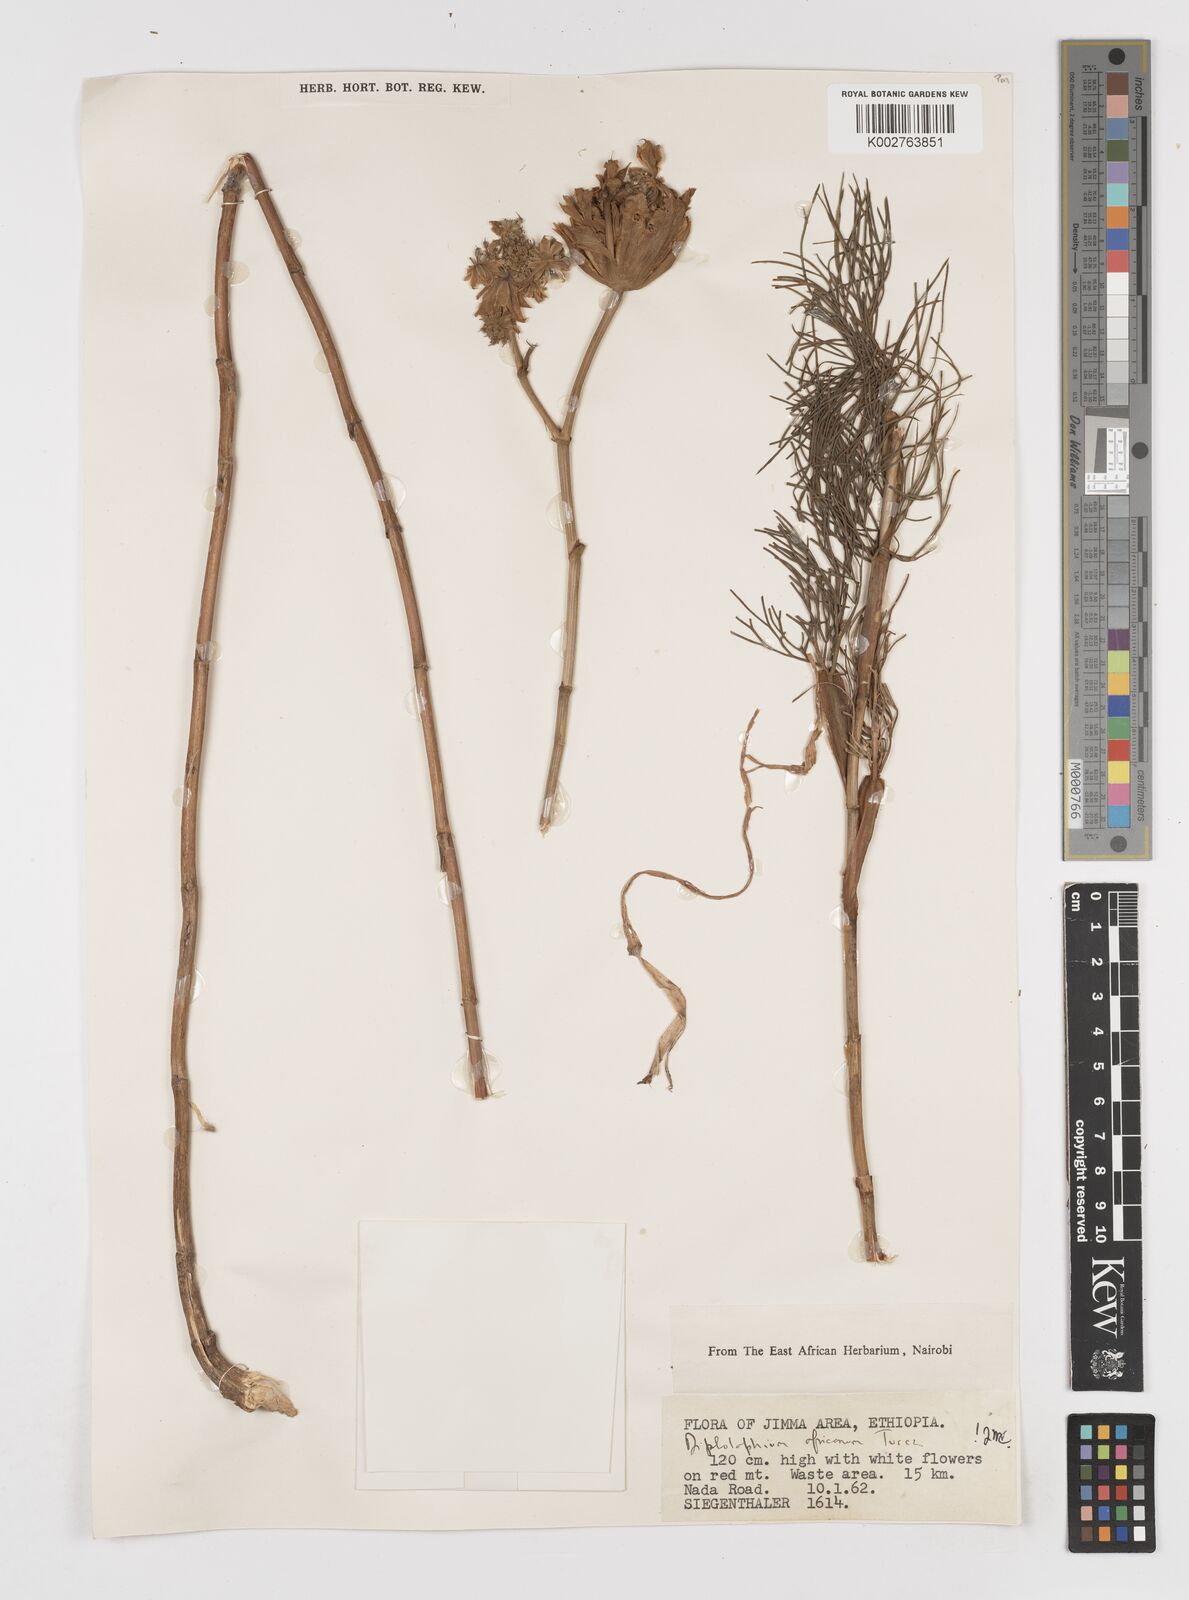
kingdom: Plantae
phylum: Tracheophyta
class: Magnoliopsida
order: Apiales
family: Apiaceae
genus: Diplolophium
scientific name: Diplolophium africanum
